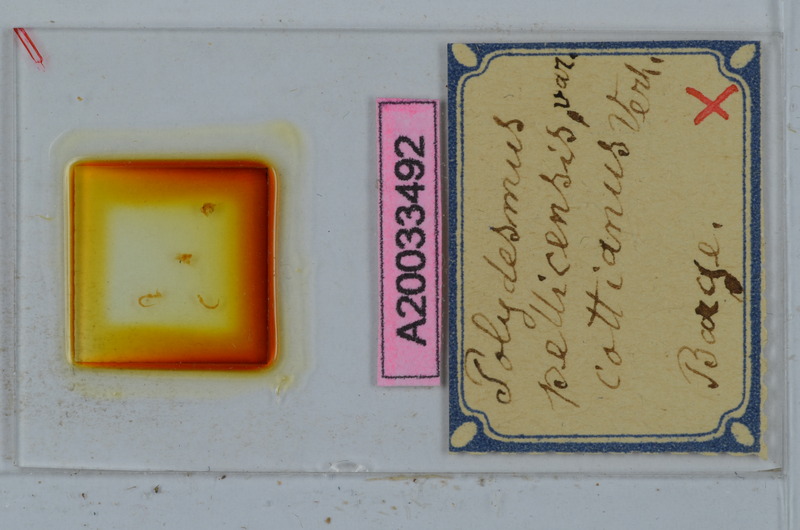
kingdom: Animalia
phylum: Arthropoda
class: Diplopoda
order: Polydesmida
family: Polydesmidae
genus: Polydesmus
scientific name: Polydesmus brevimanus
